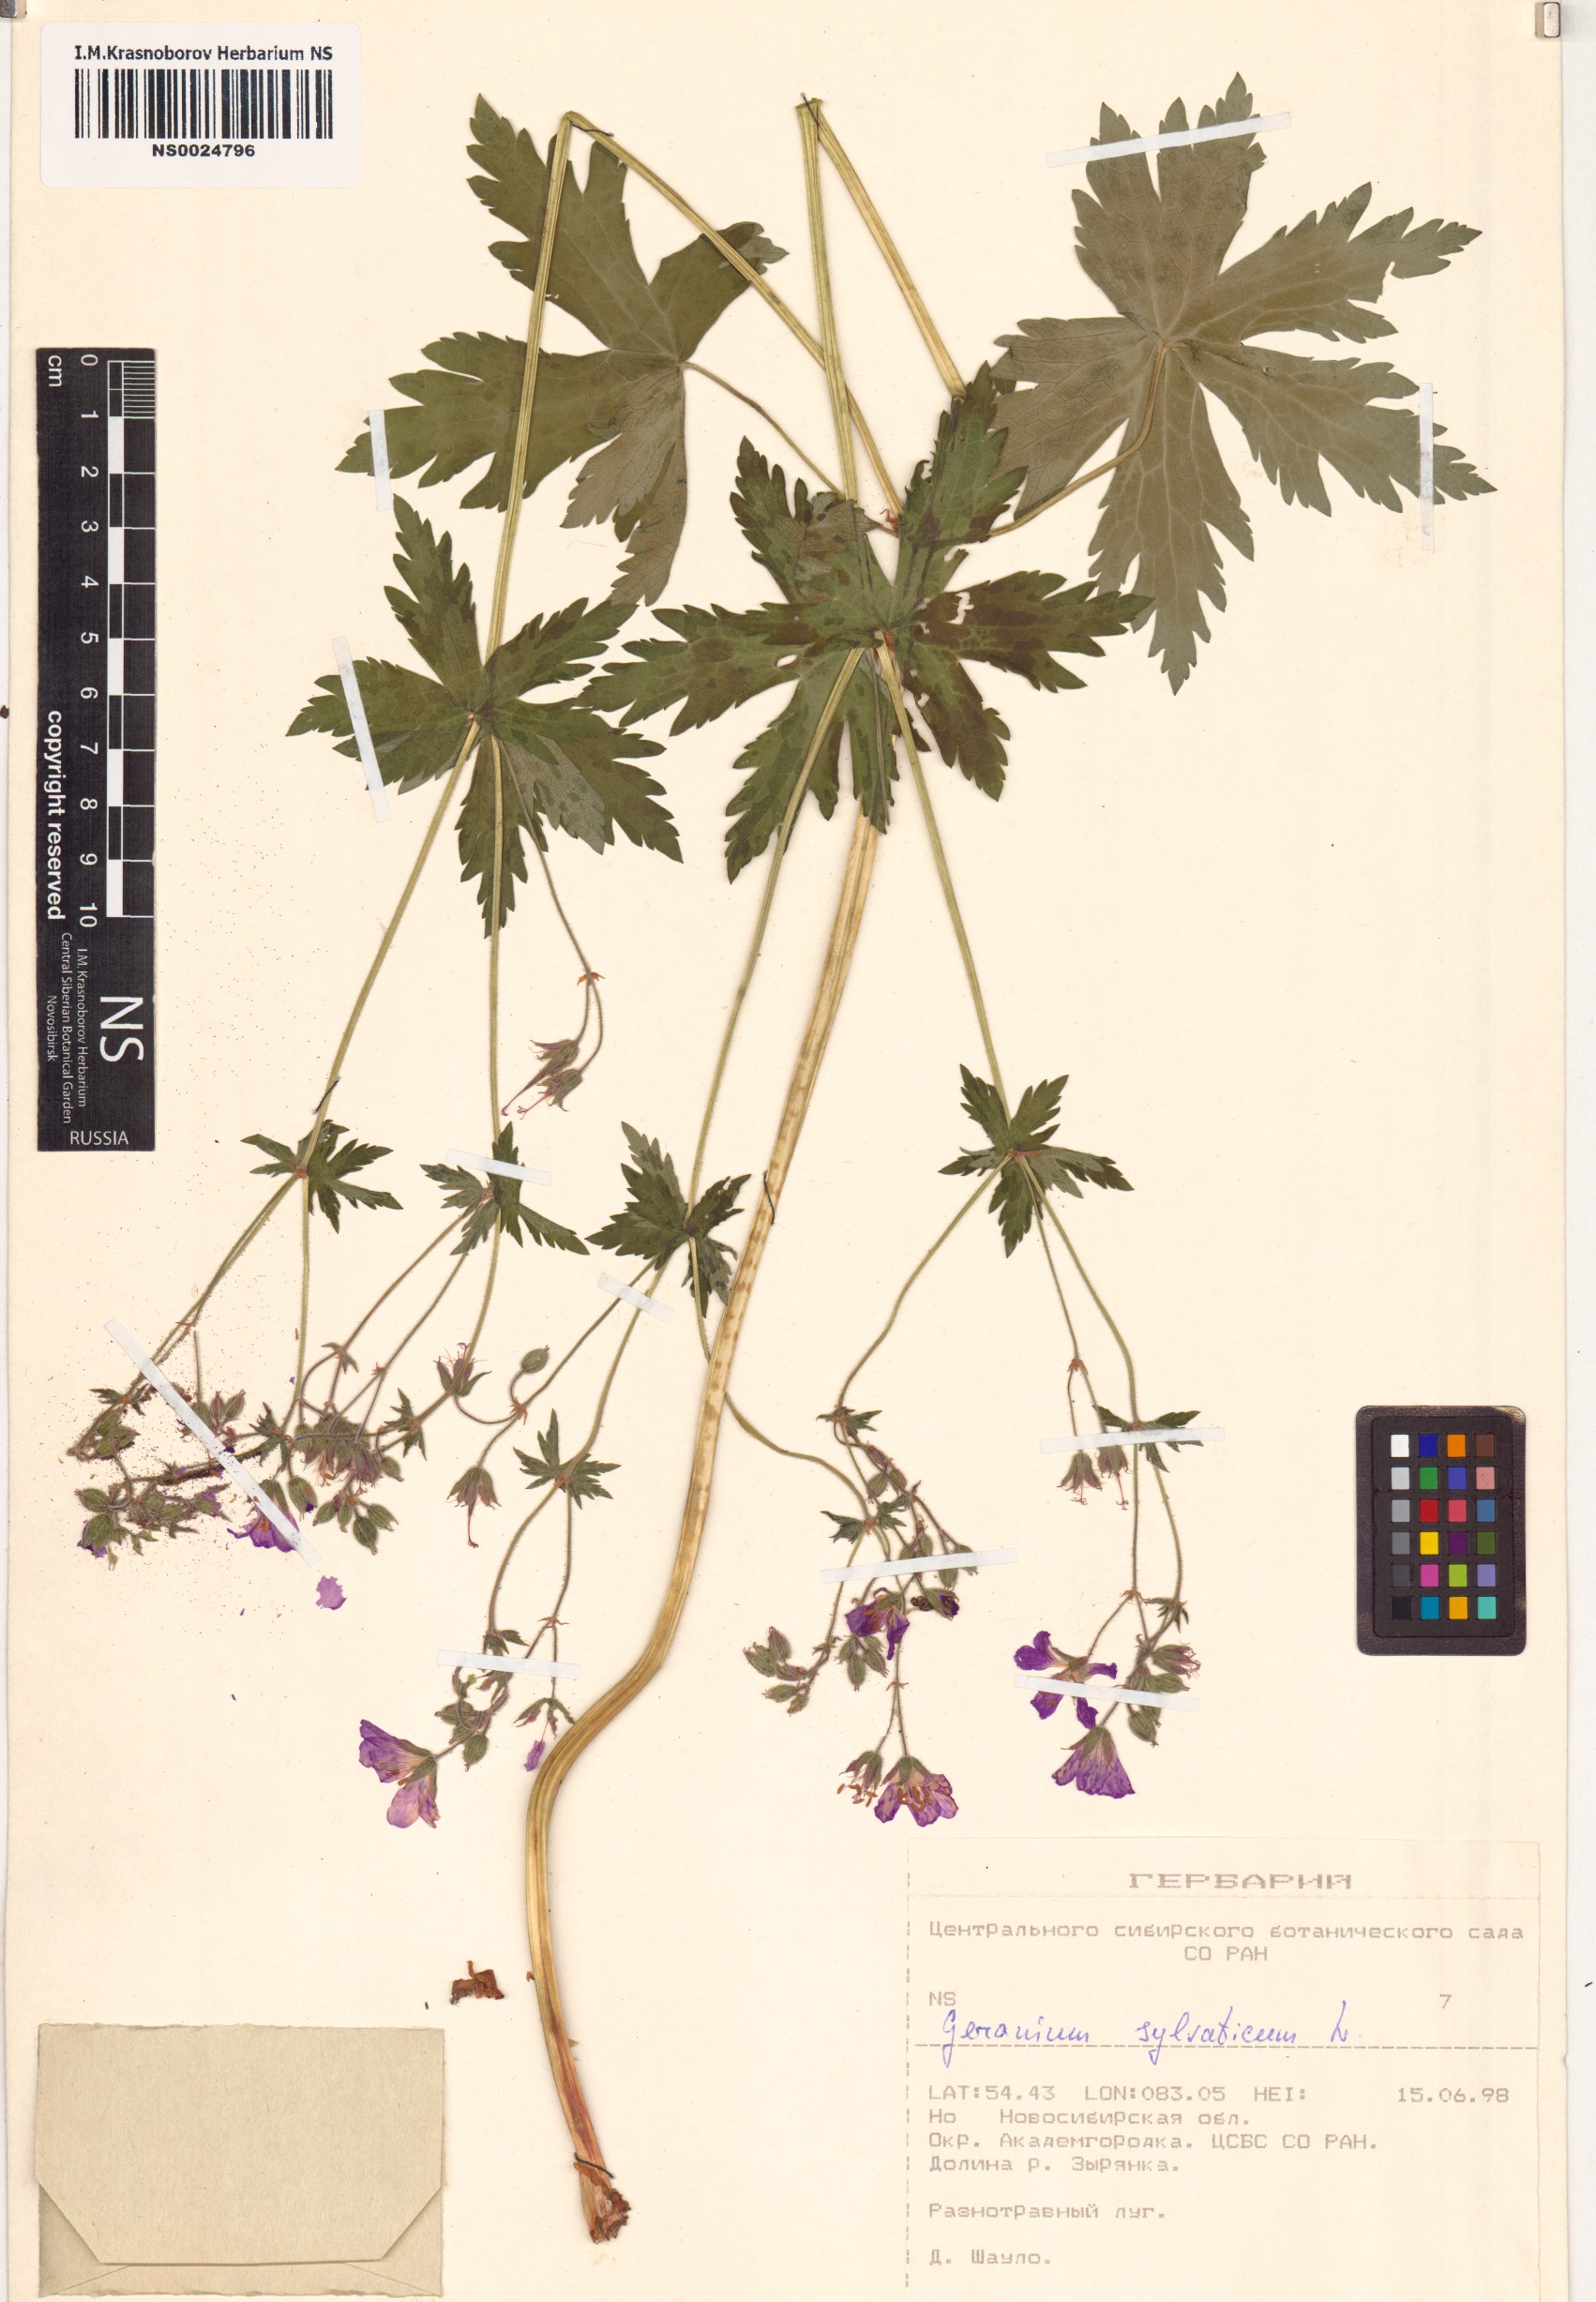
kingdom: Plantae
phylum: Tracheophyta
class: Magnoliopsida
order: Geraniales
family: Geraniaceae
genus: Geranium
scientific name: Geranium sylvaticum
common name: Wood crane's-bill
